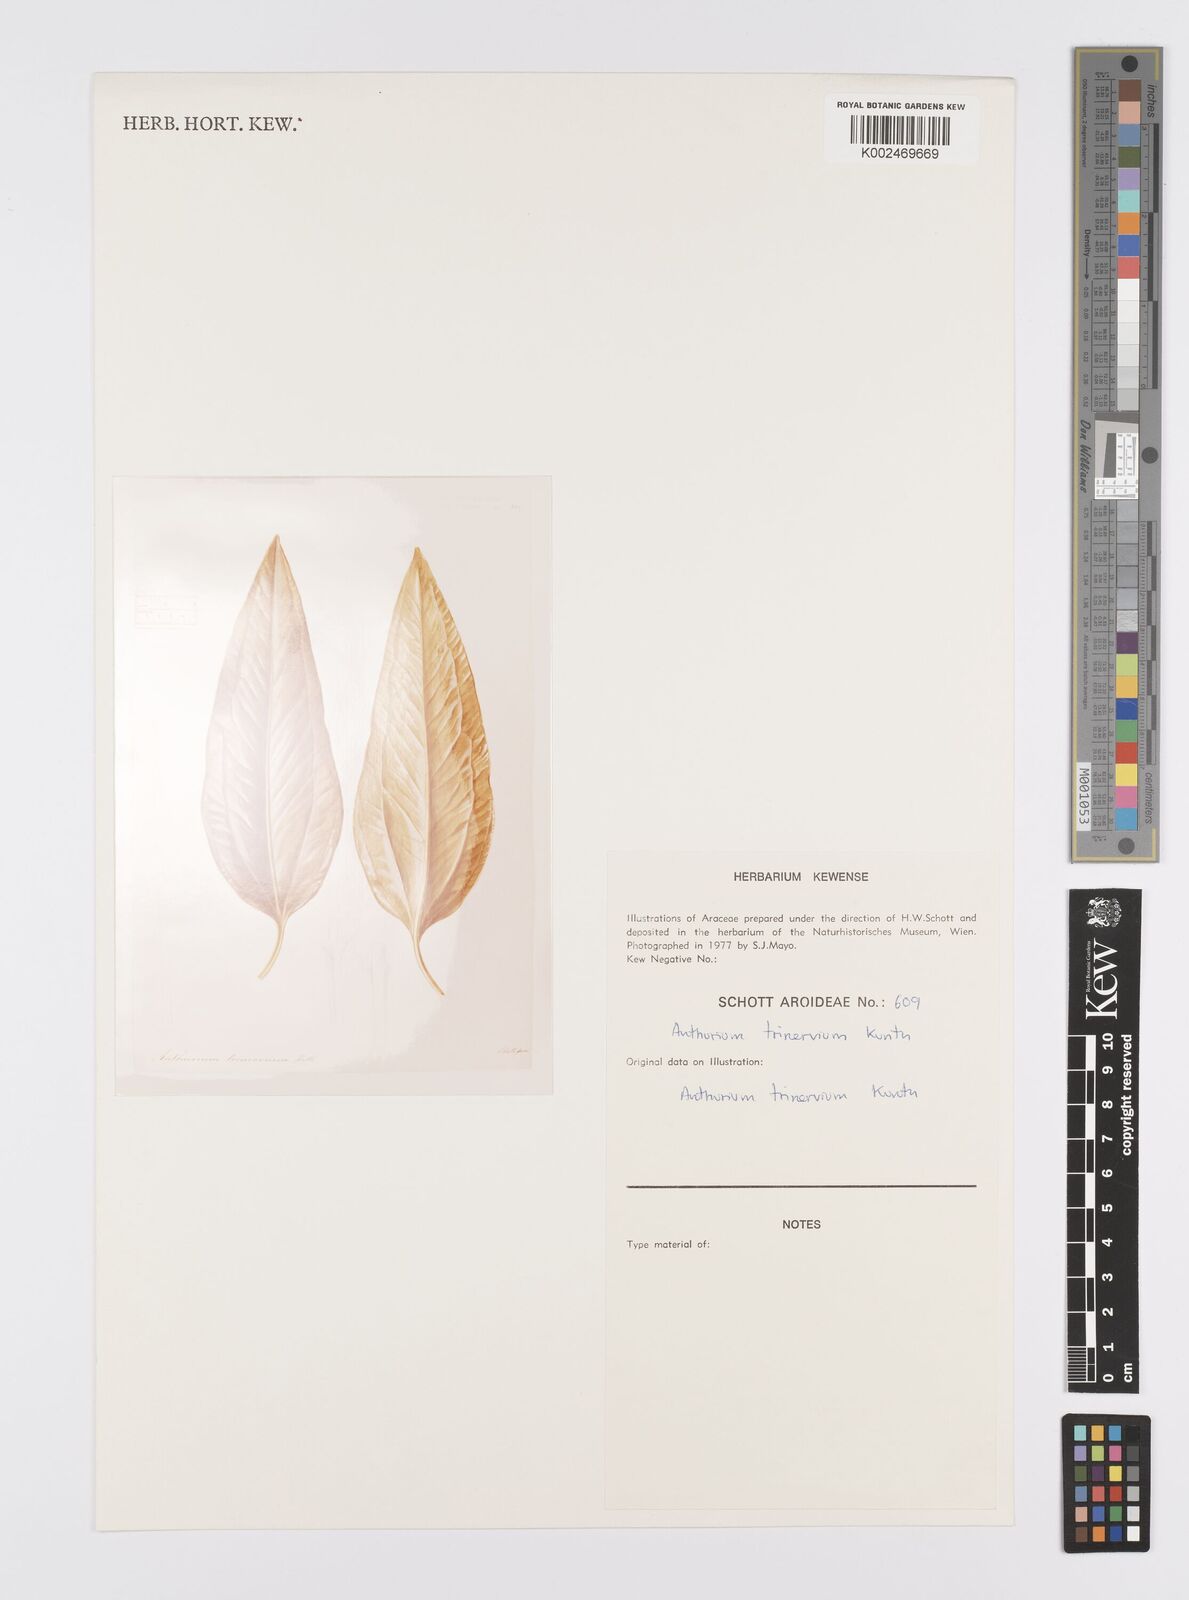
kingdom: Plantae
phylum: Tracheophyta
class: Liliopsida
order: Alismatales
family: Araceae
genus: Anthurium
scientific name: Anthurium trinervium
